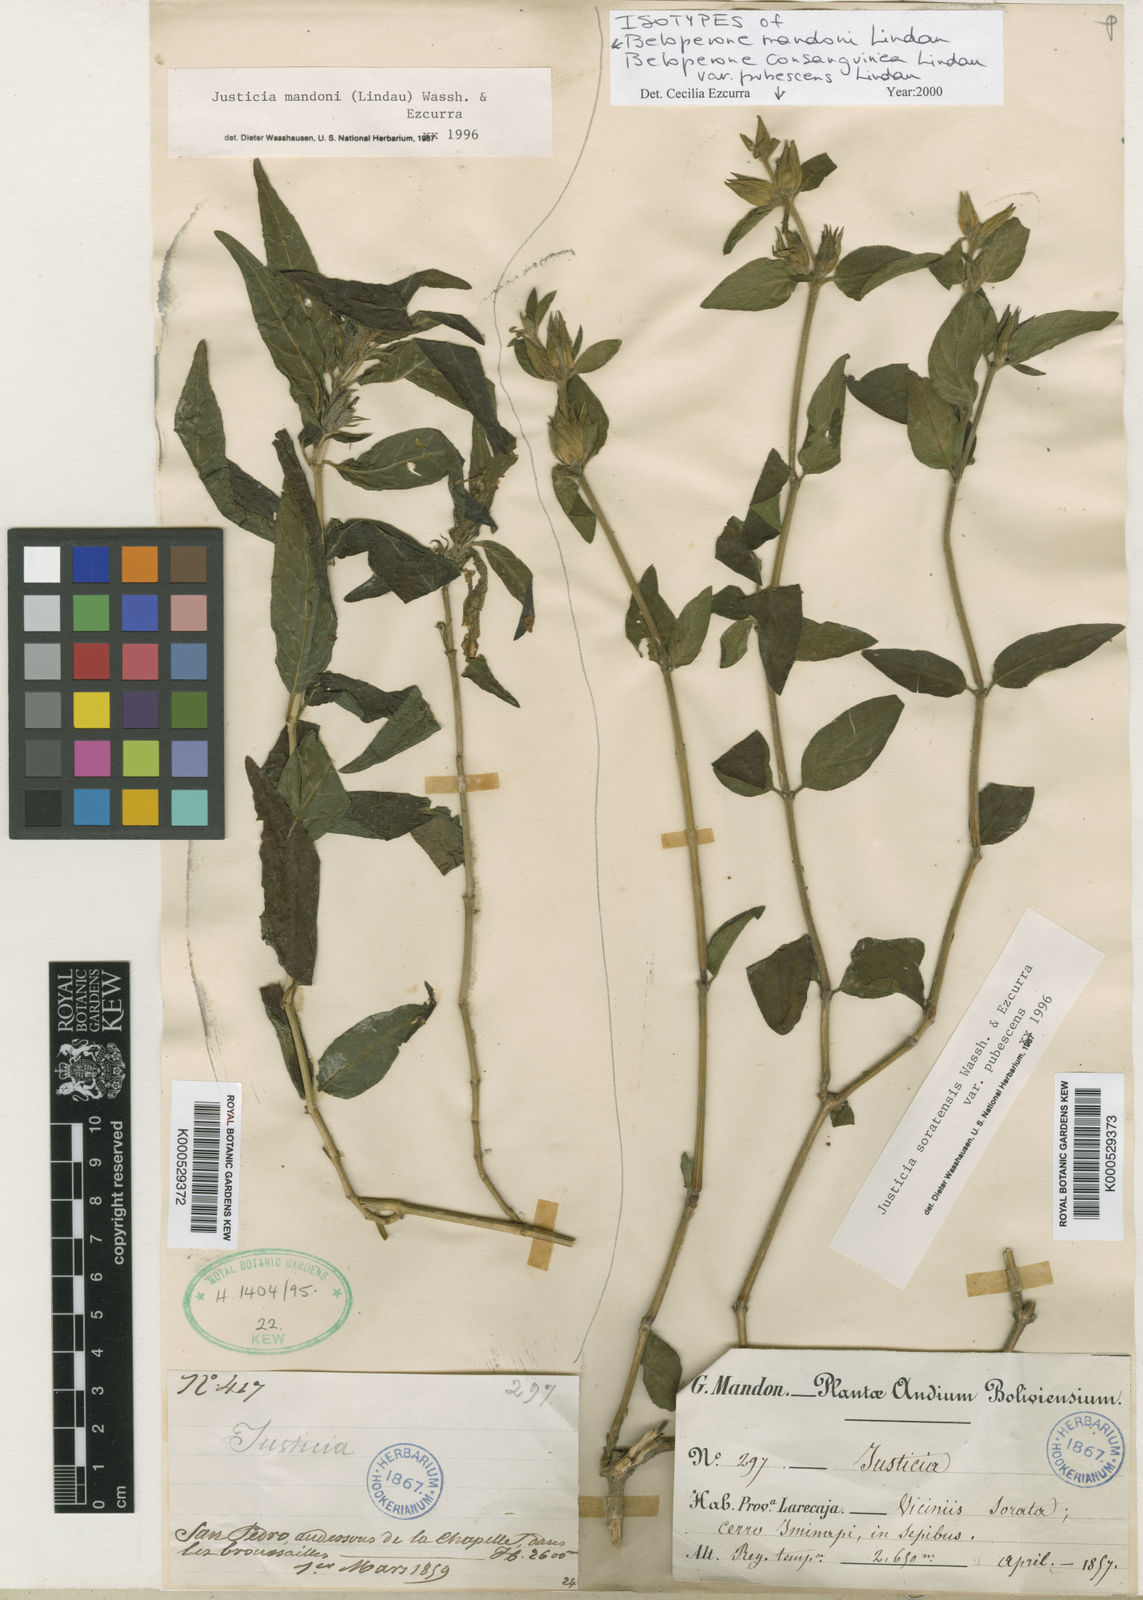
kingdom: Plantae
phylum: Tracheophyta
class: Magnoliopsida
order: Lamiales
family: Acanthaceae
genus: Justicia
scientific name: Justicia mandonii
